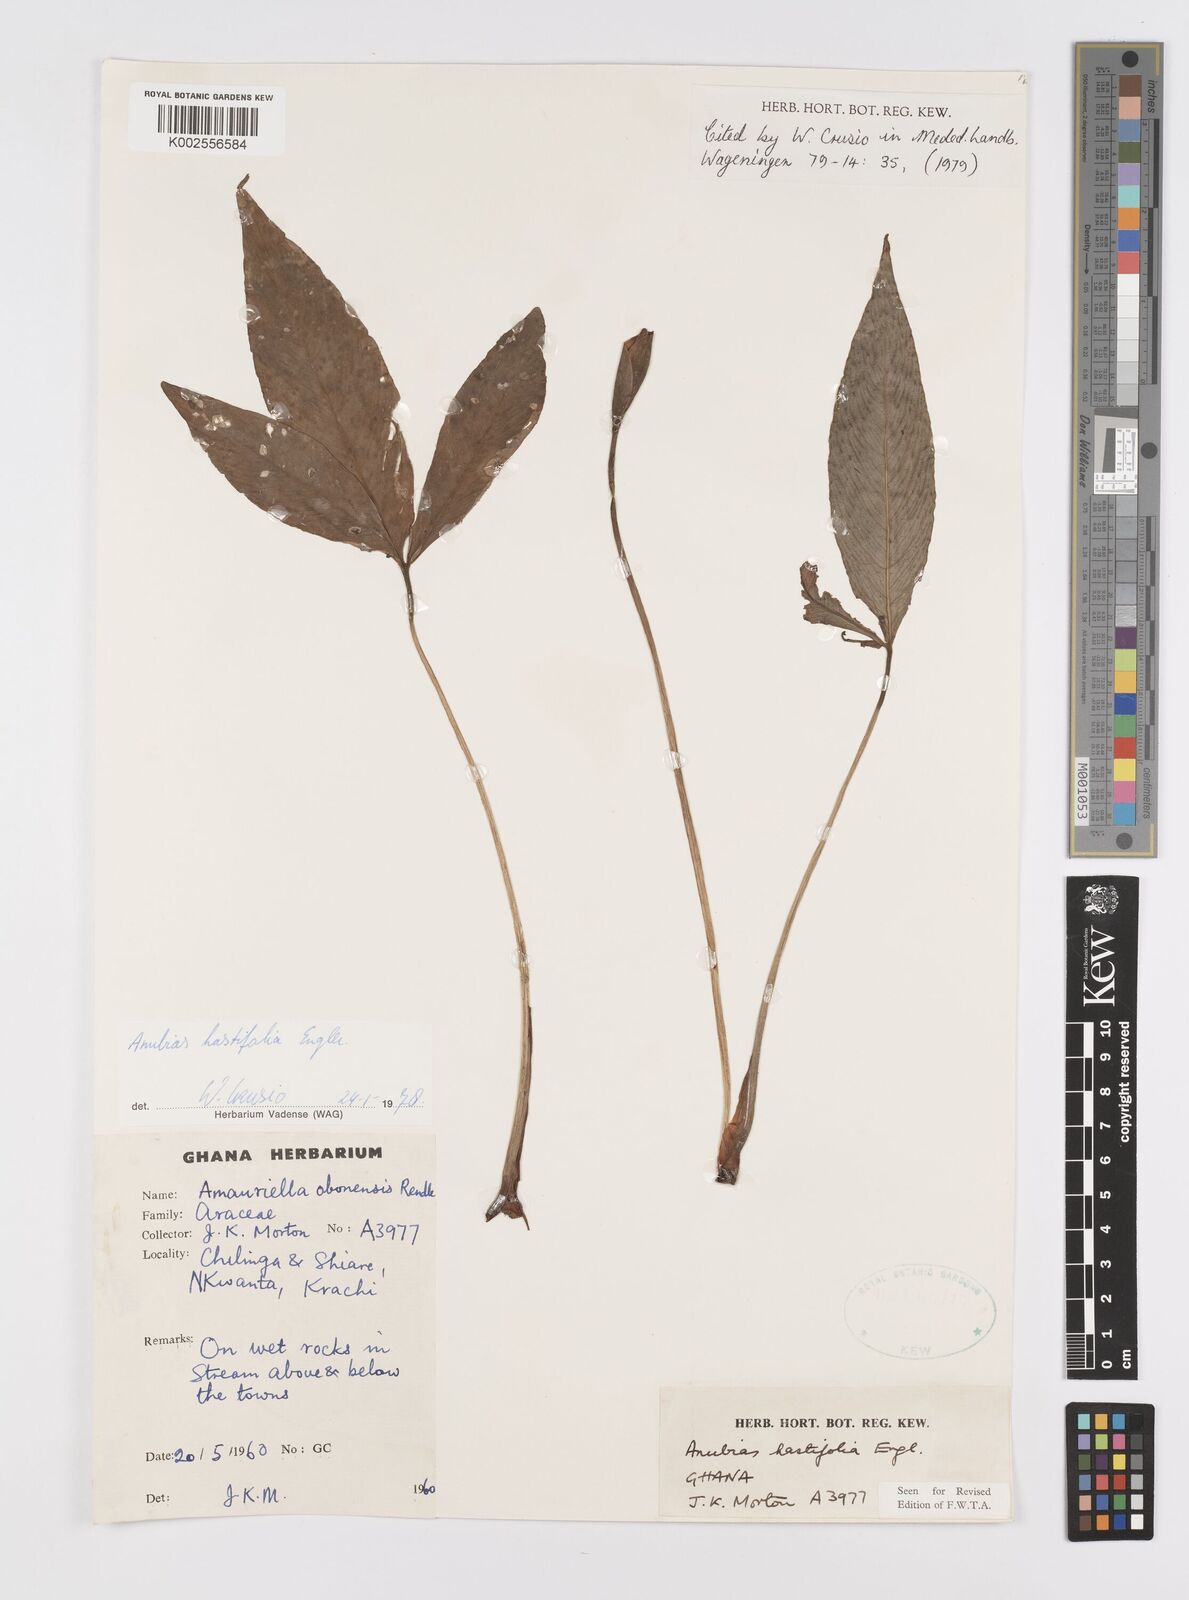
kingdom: Plantae
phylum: Tracheophyta
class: Liliopsida
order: Alismatales
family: Araceae
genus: Anubias
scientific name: Anubias hastifolia
